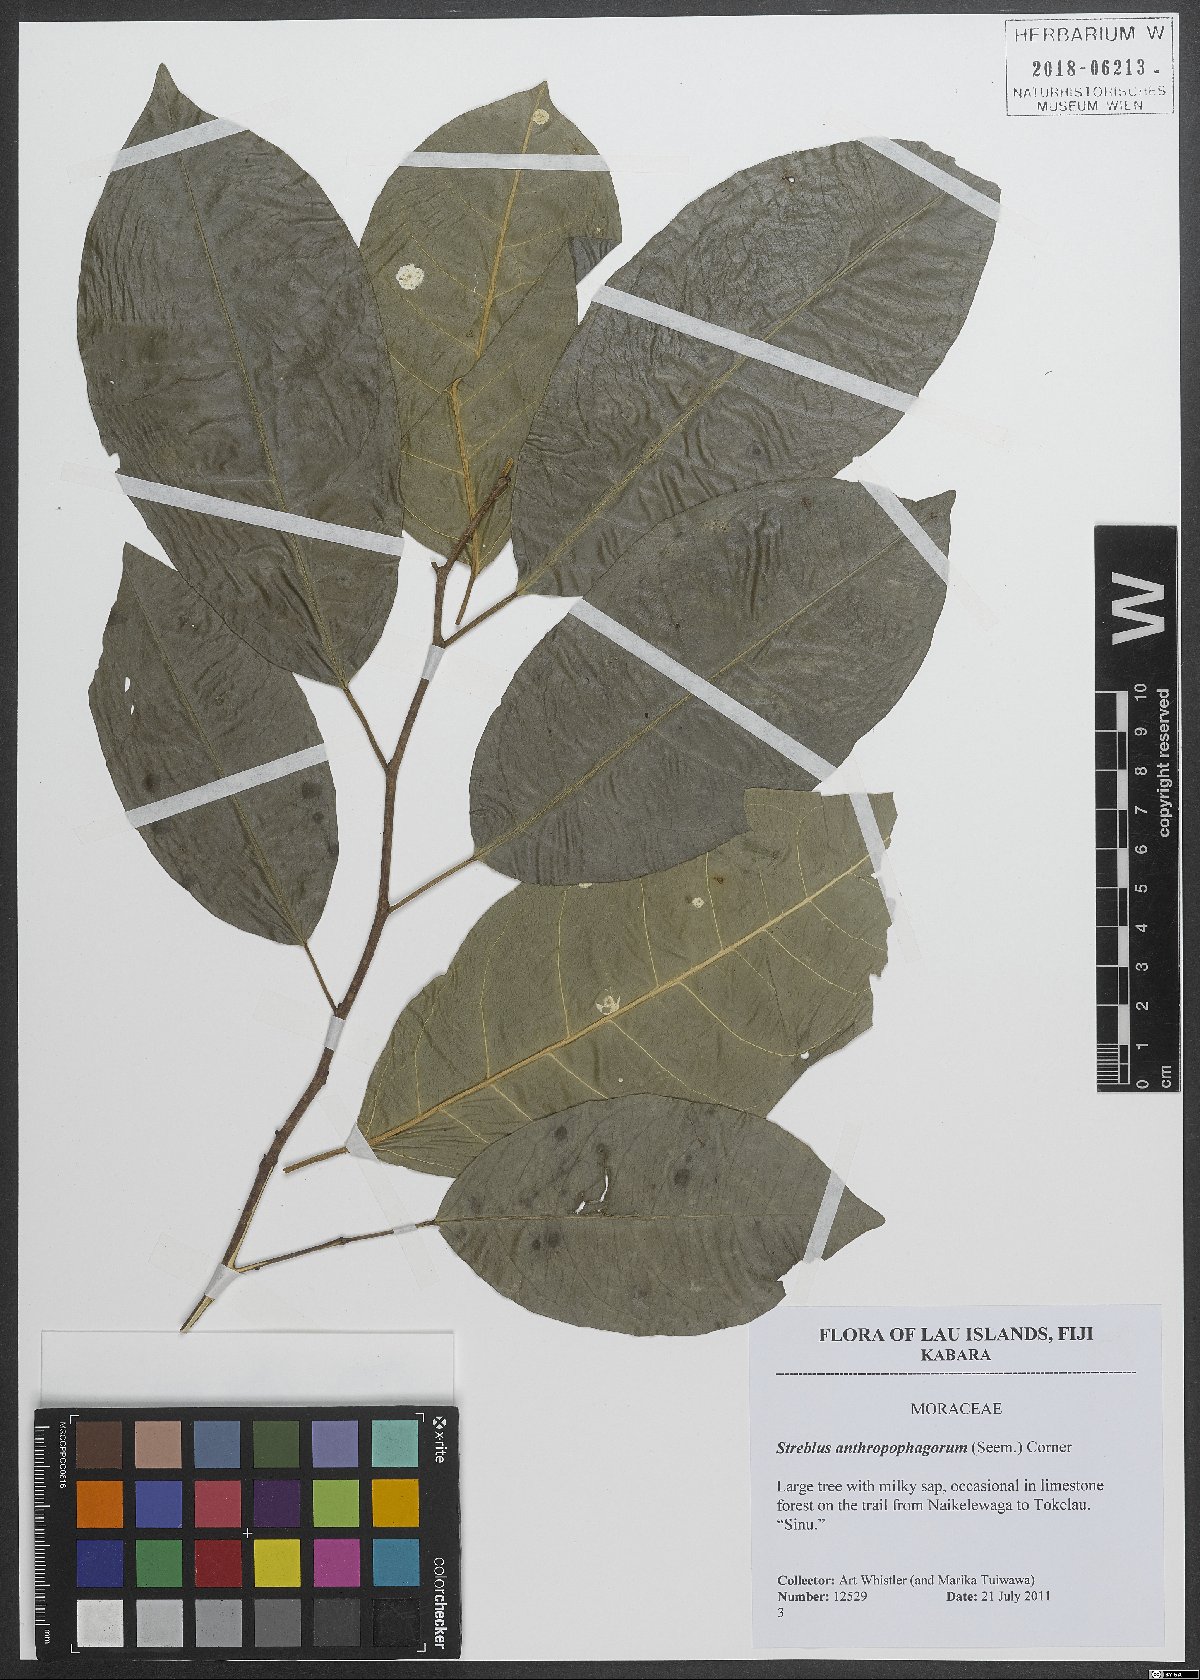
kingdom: Plantae
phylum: Tracheophyta
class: Magnoliopsida
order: Rosales
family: Moraceae
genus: Paratrophis
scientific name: Paratrophis anthropophagorum
